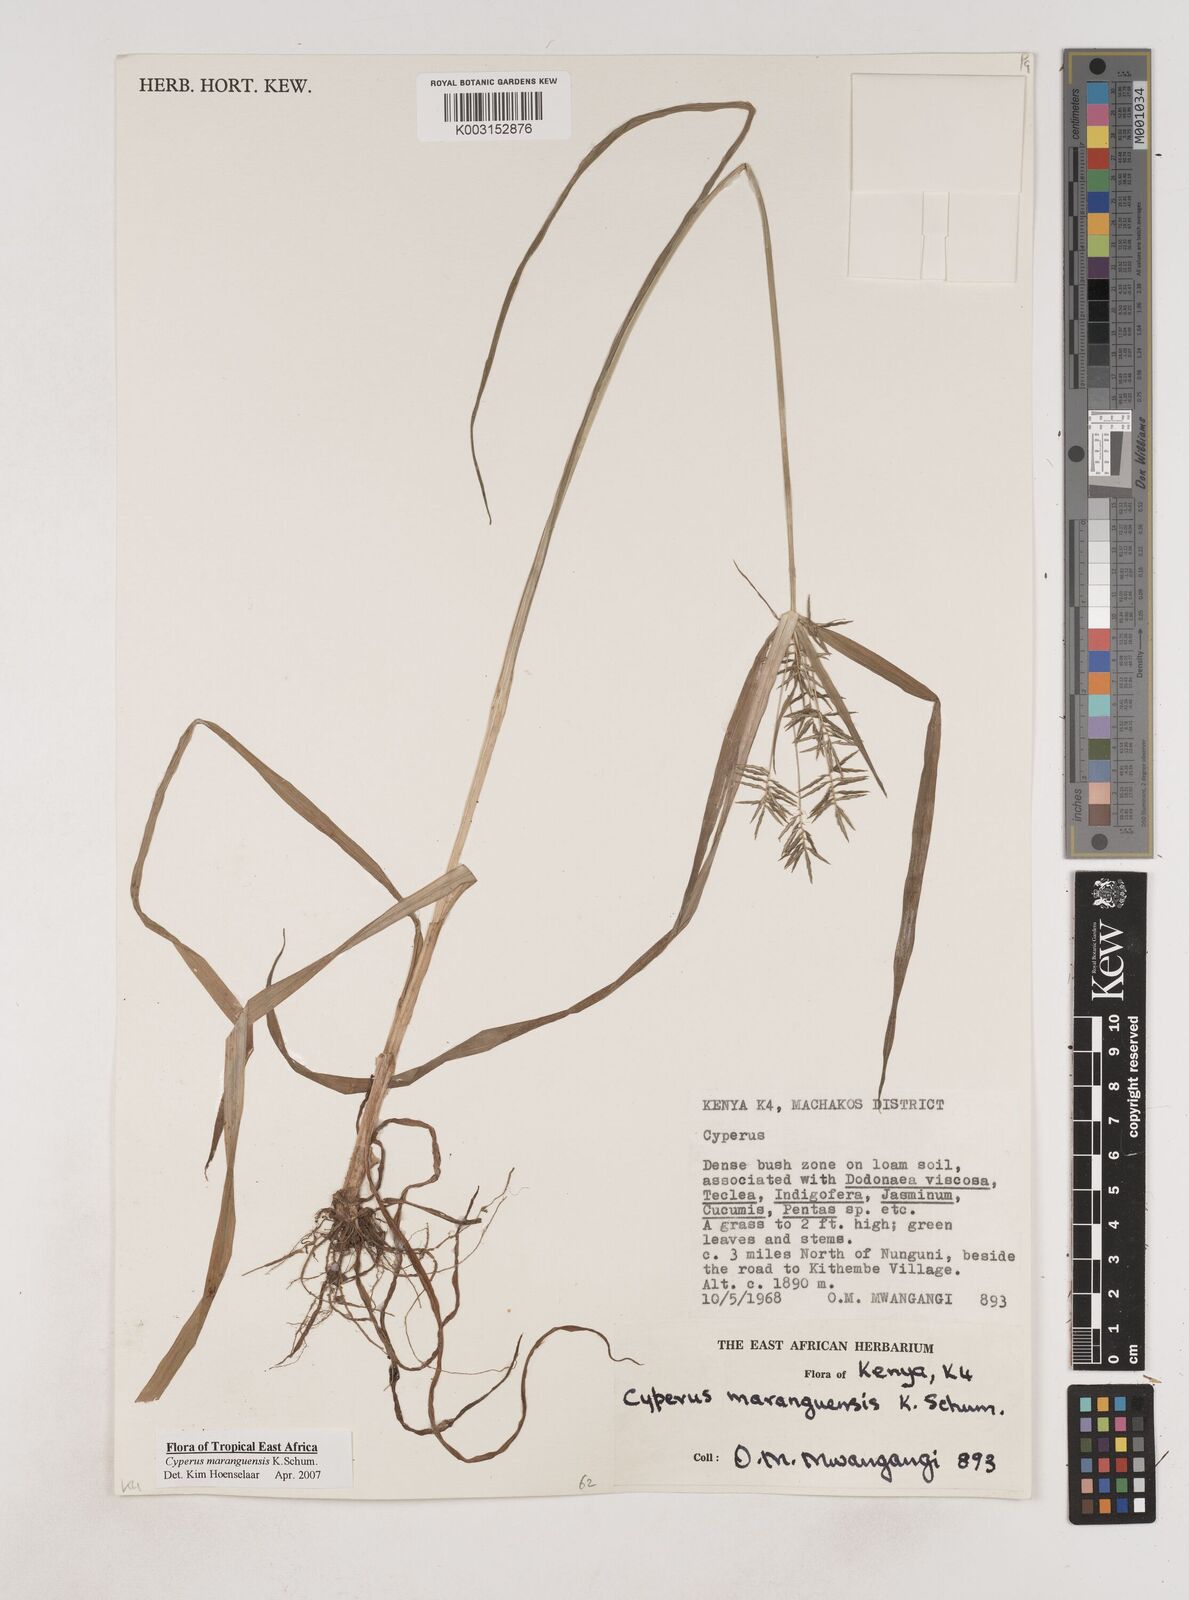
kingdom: Plantae
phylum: Tracheophyta
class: Liliopsida
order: Poales
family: Cyperaceae
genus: Cyperus
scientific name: Cyperus maranguensis
